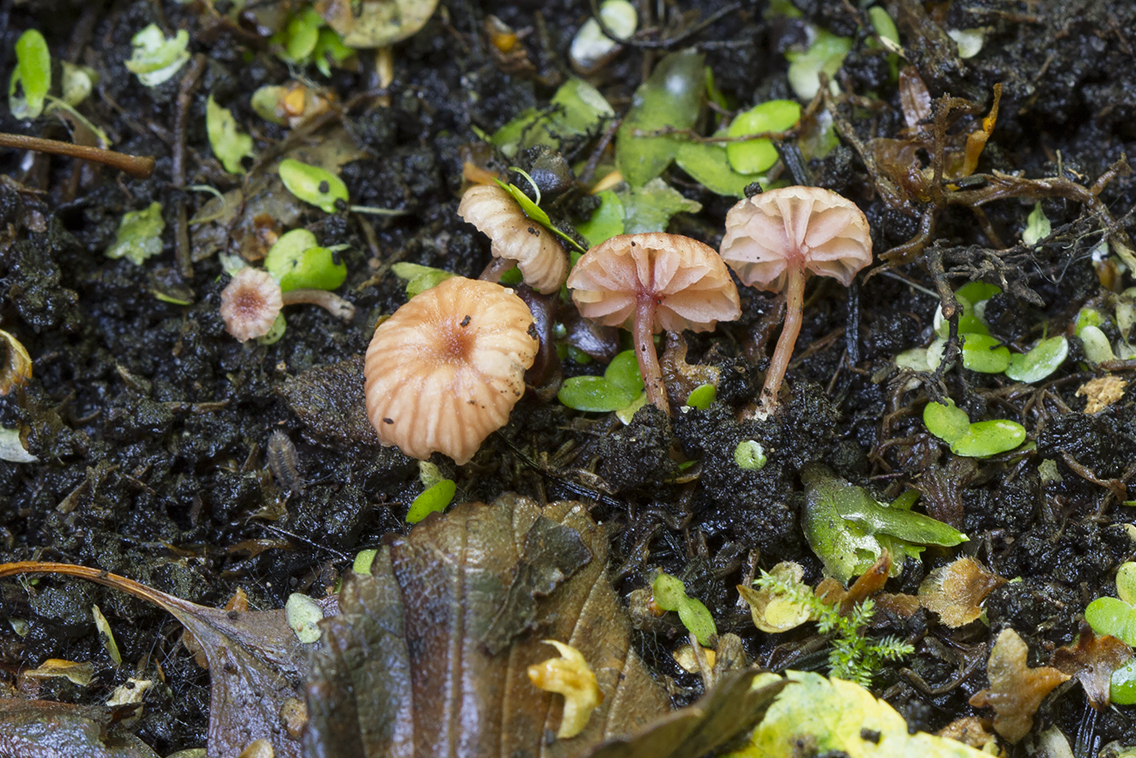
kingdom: Fungi
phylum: Basidiomycota
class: Agaricomycetes
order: Agaricales
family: Hydnangiaceae
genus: Laccaria
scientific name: Laccaria tortilis
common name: krybende ametysthat
